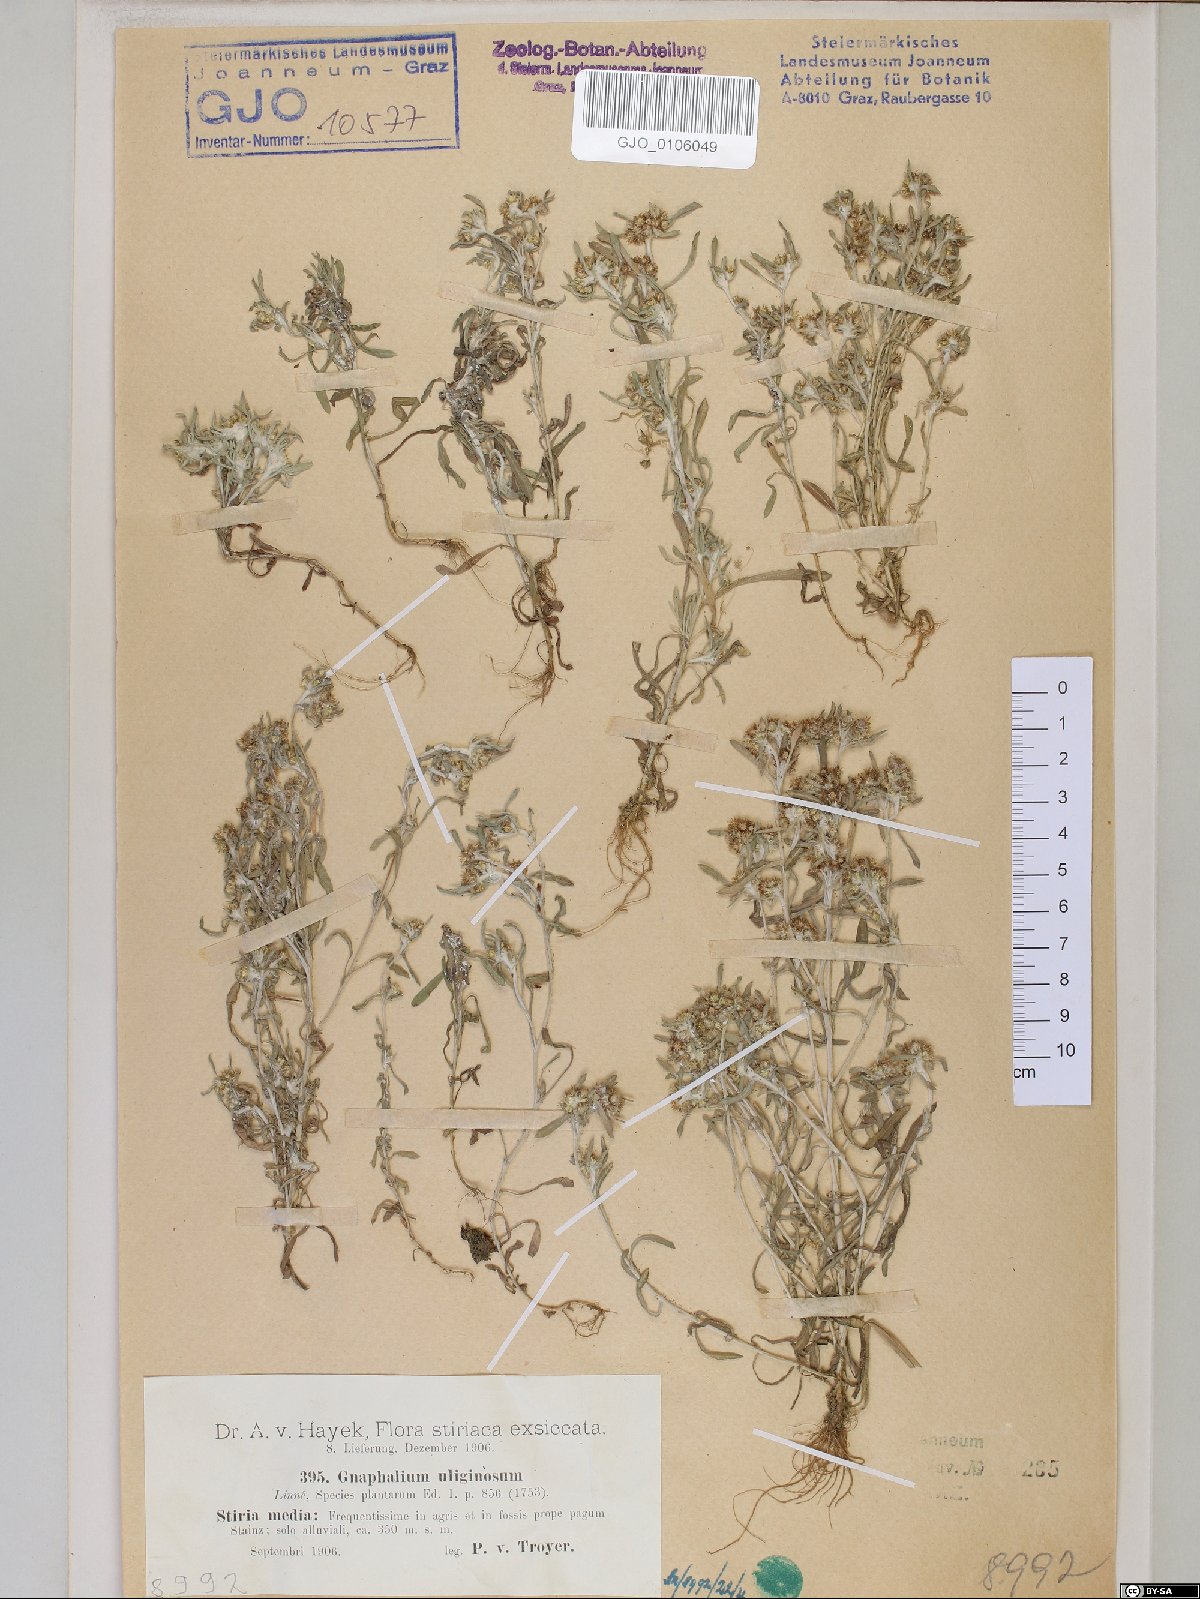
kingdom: Plantae
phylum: Tracheophyta
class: Magnoliopsida
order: Asterales
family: Asteraceae
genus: Gnaphalium
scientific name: Gnaphalium uliginosum
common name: Marsh cudweed
